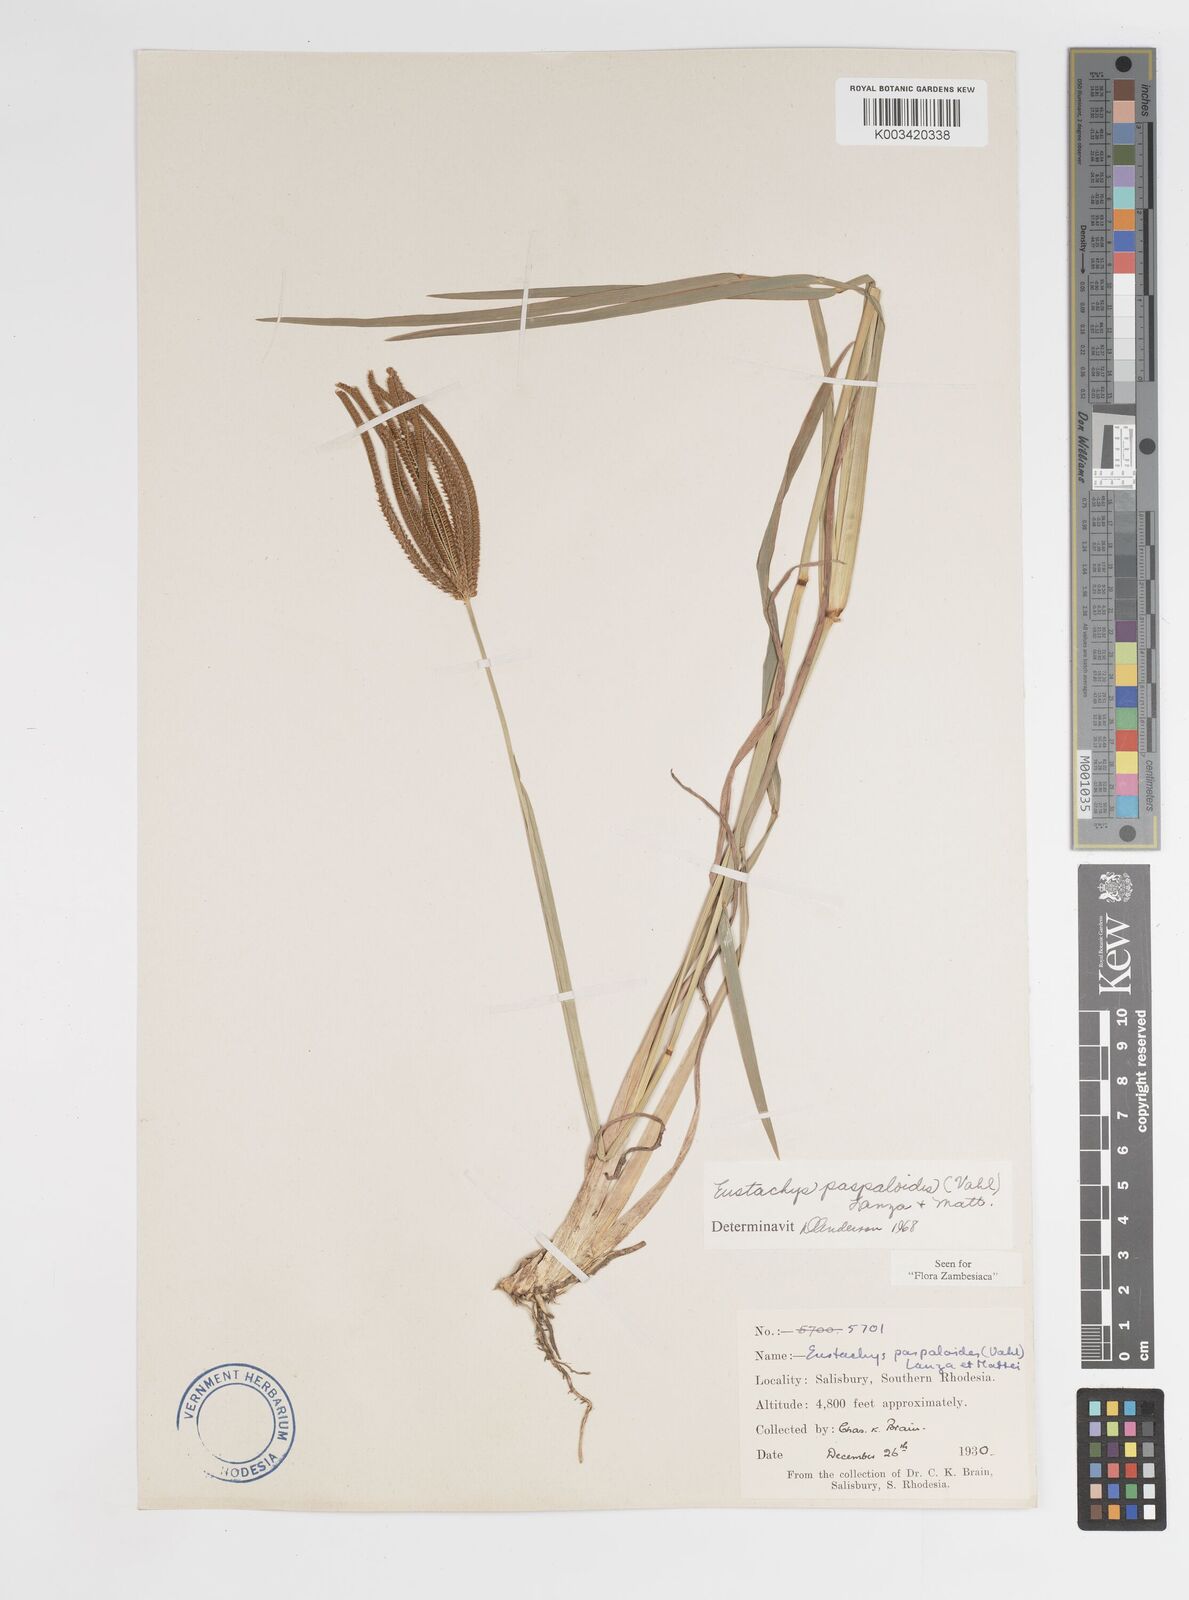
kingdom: Plantae
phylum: Tracheophyta
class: Liliopsida
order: Poales
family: Poaceae
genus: Eustachys
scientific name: Eustachys paspaloides
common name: Caribbean fingergrass
